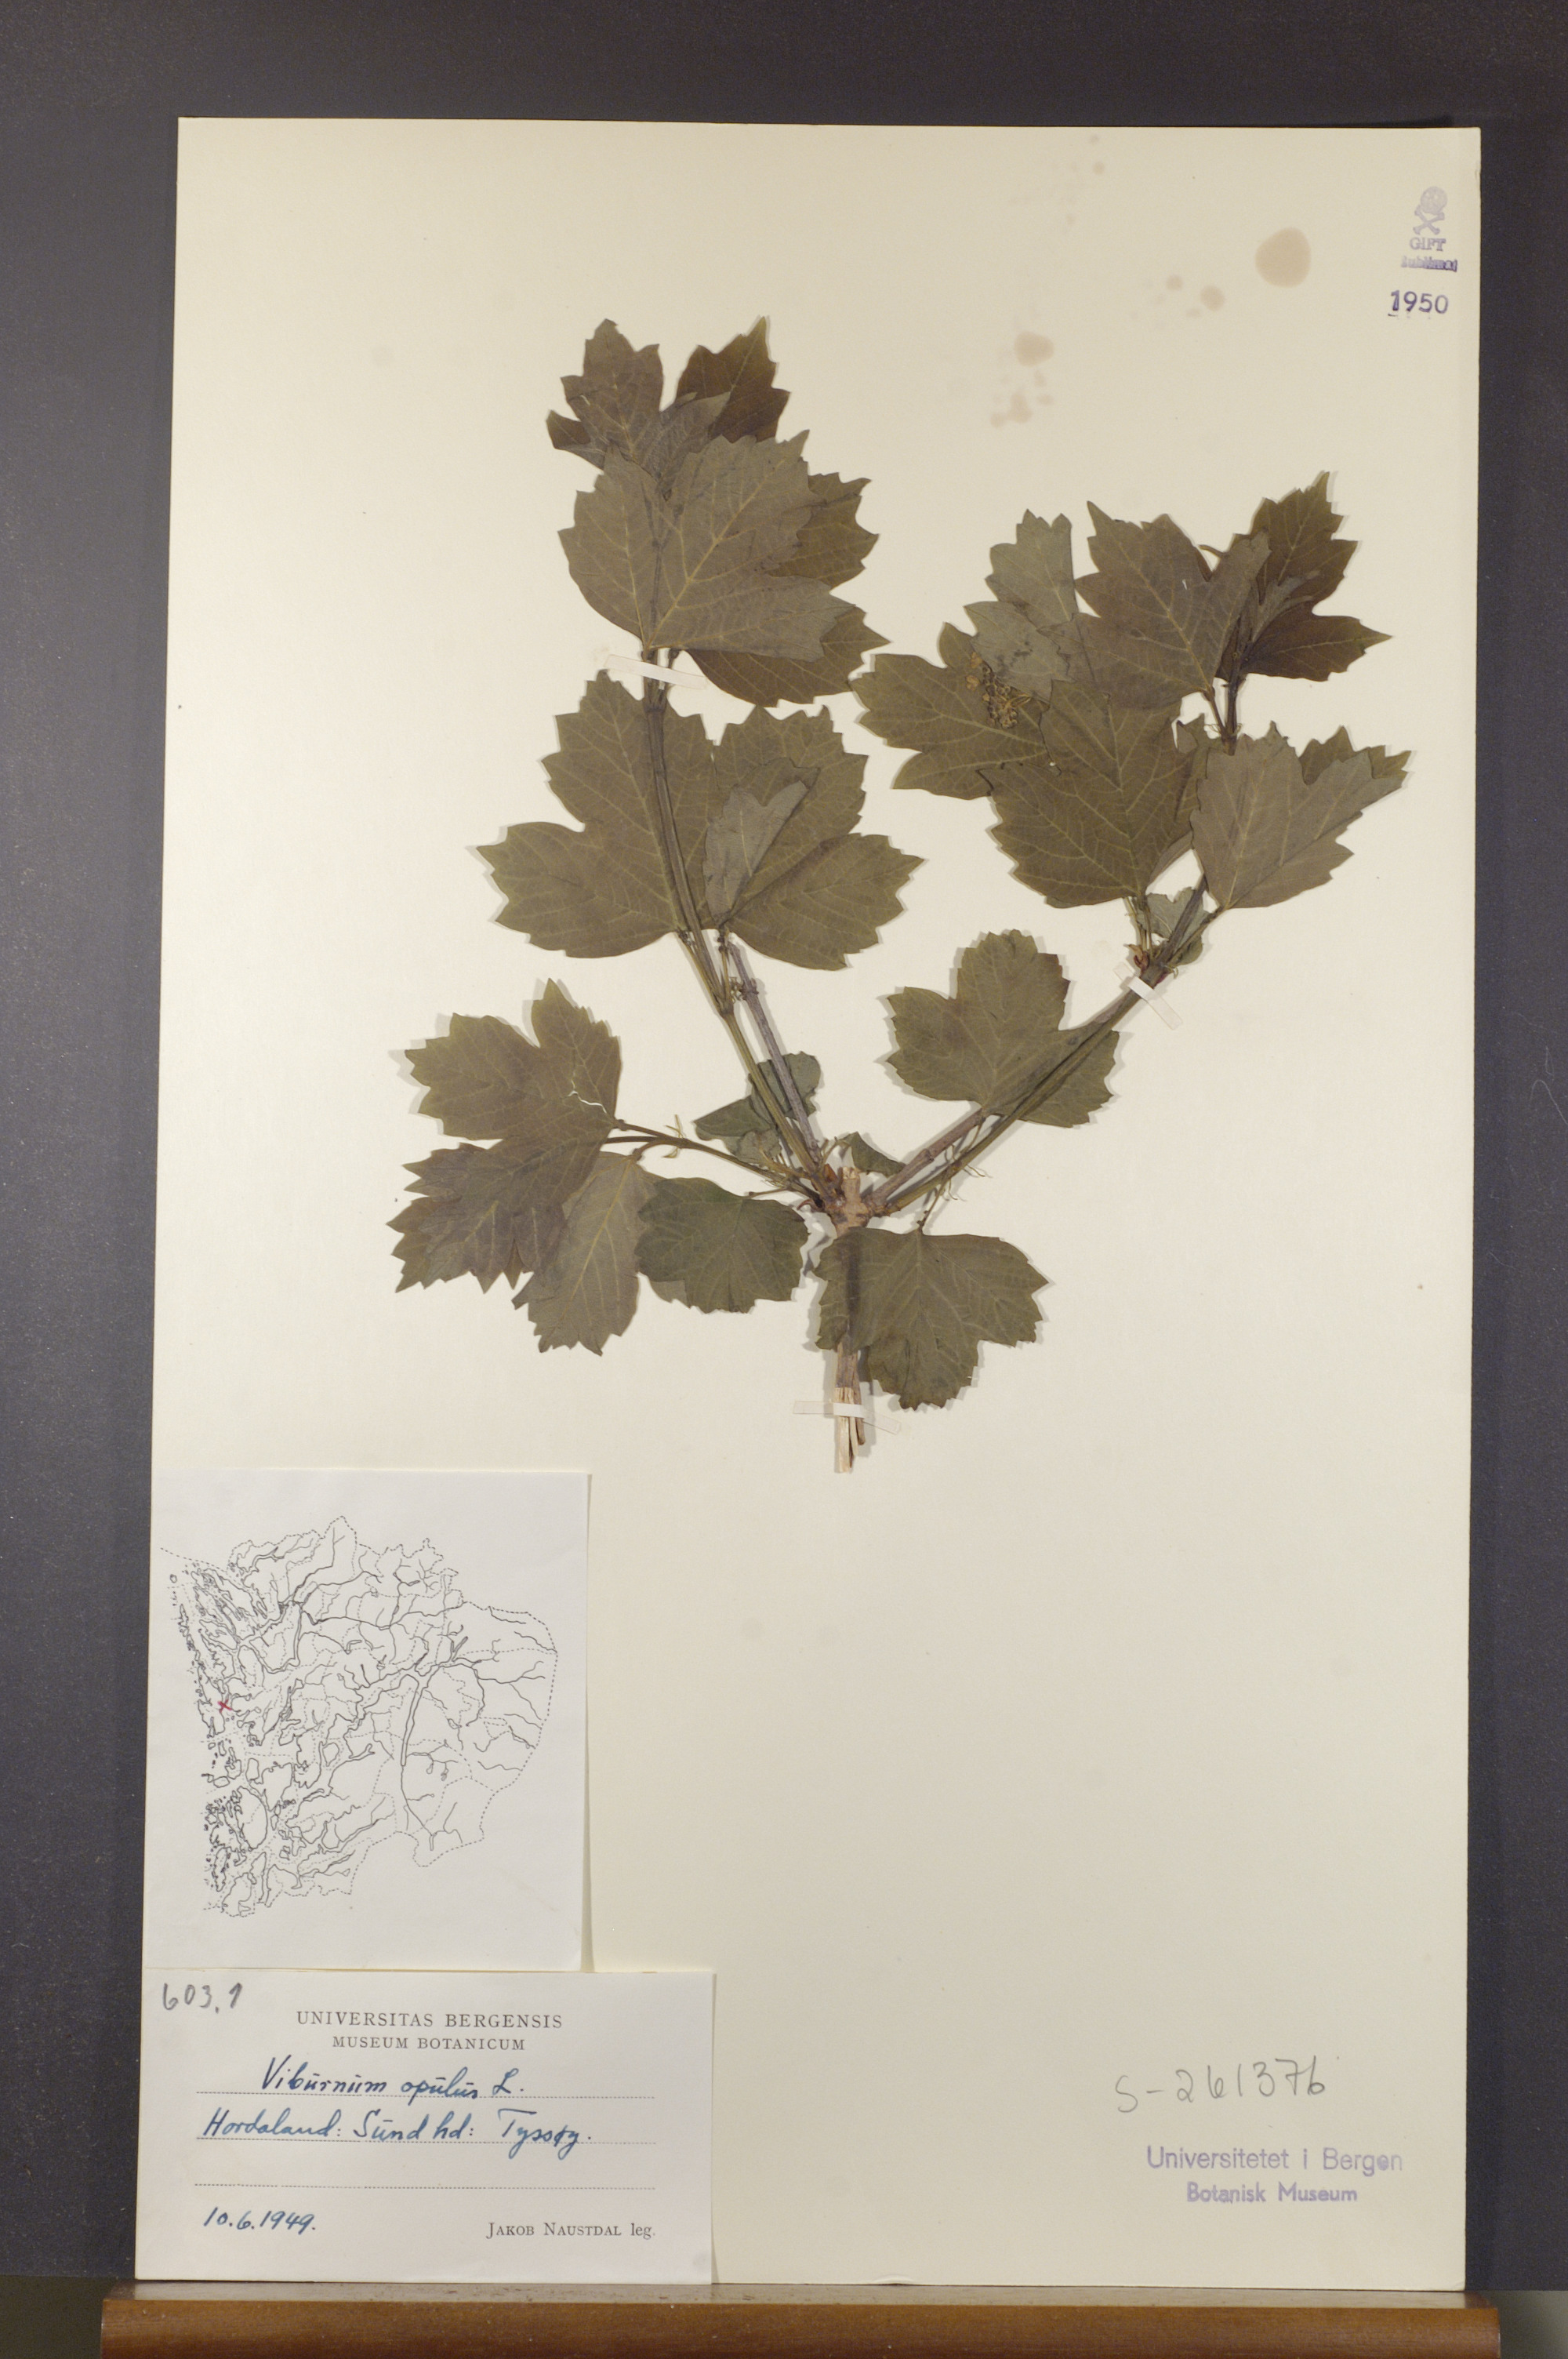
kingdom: Plantae
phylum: Tracheophyta
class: Magnoliopsida
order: Dipsacales
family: Viburnaceae
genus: Viburnum
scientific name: Viburnum opulus
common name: Guelder-rose
